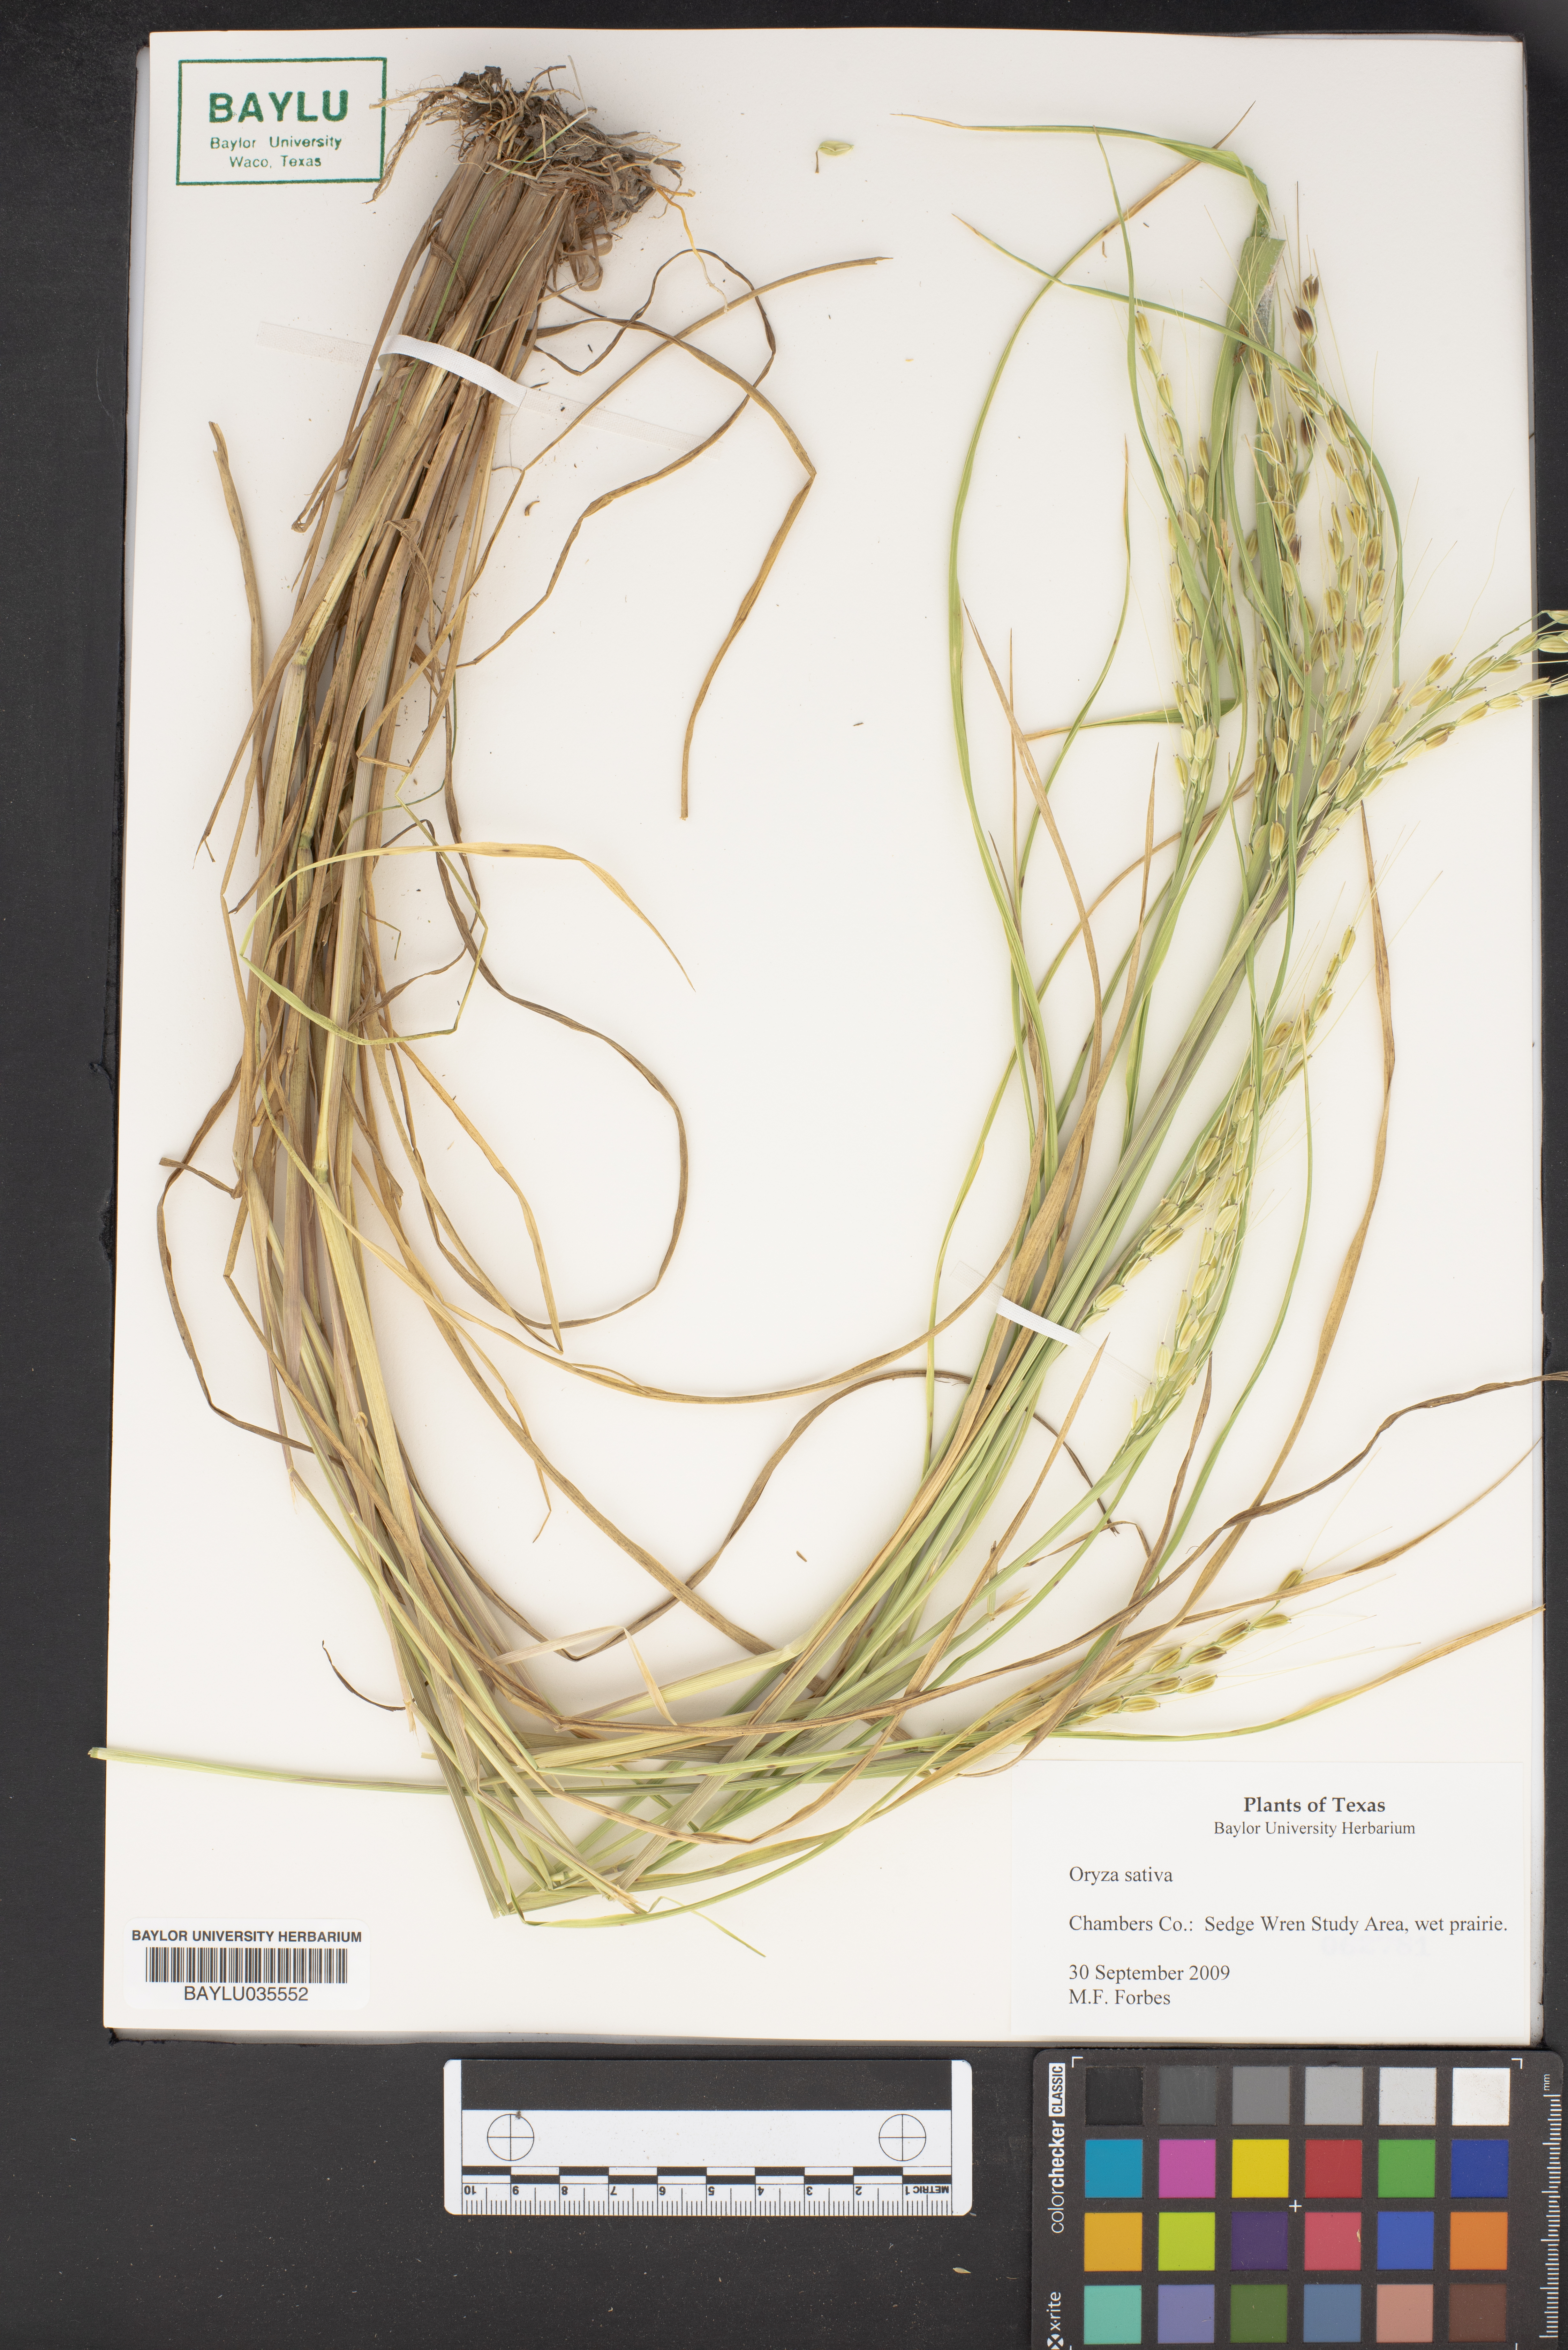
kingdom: Plantae
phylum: Tracheophyta
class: Liliopsida
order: Poales
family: Poaceae
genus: Oryza
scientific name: Oryza sativa
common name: Rice
